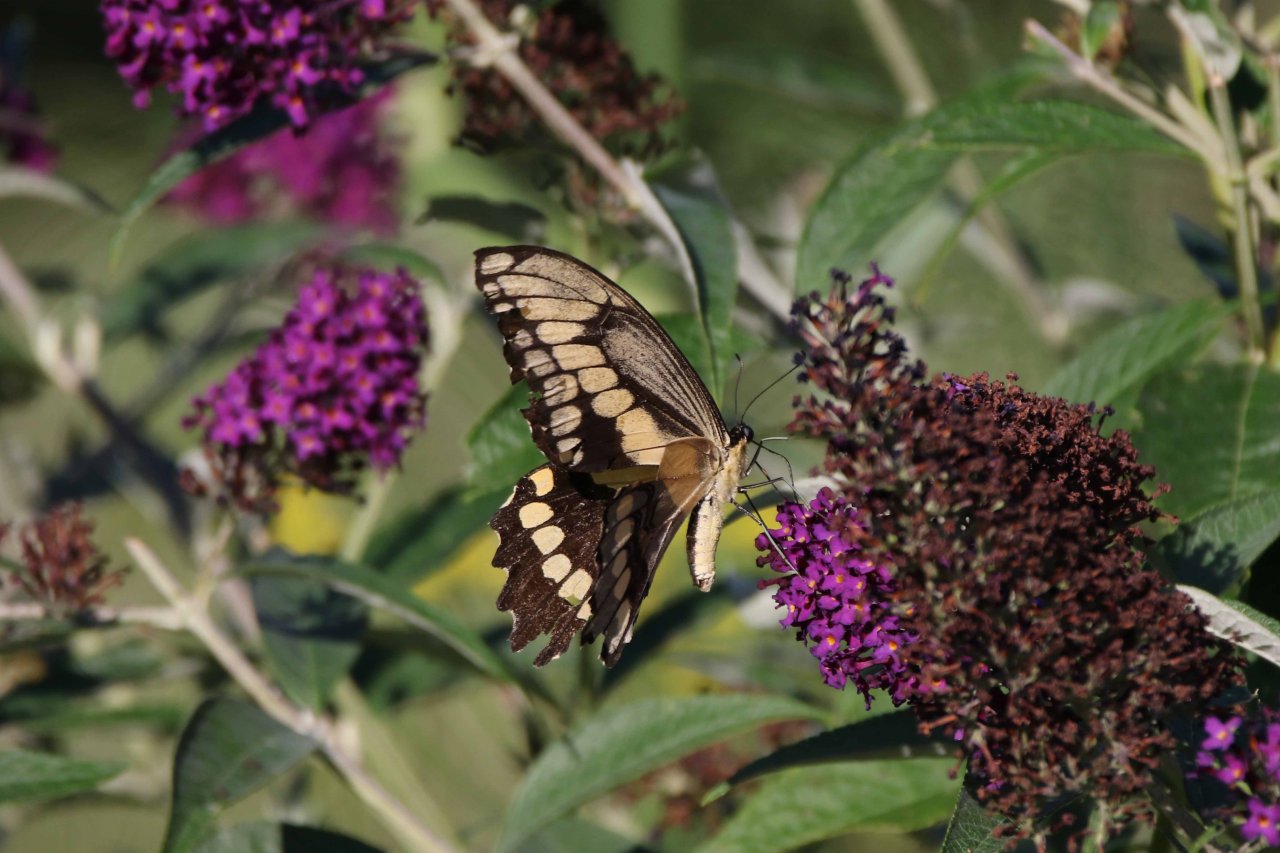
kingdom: Animalia
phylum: Arthropoda
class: Insecta
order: Lepidoptera
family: Papilionidae
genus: Papilio
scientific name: Papilio cresphontes
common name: Eastern Giant Swallowtail
